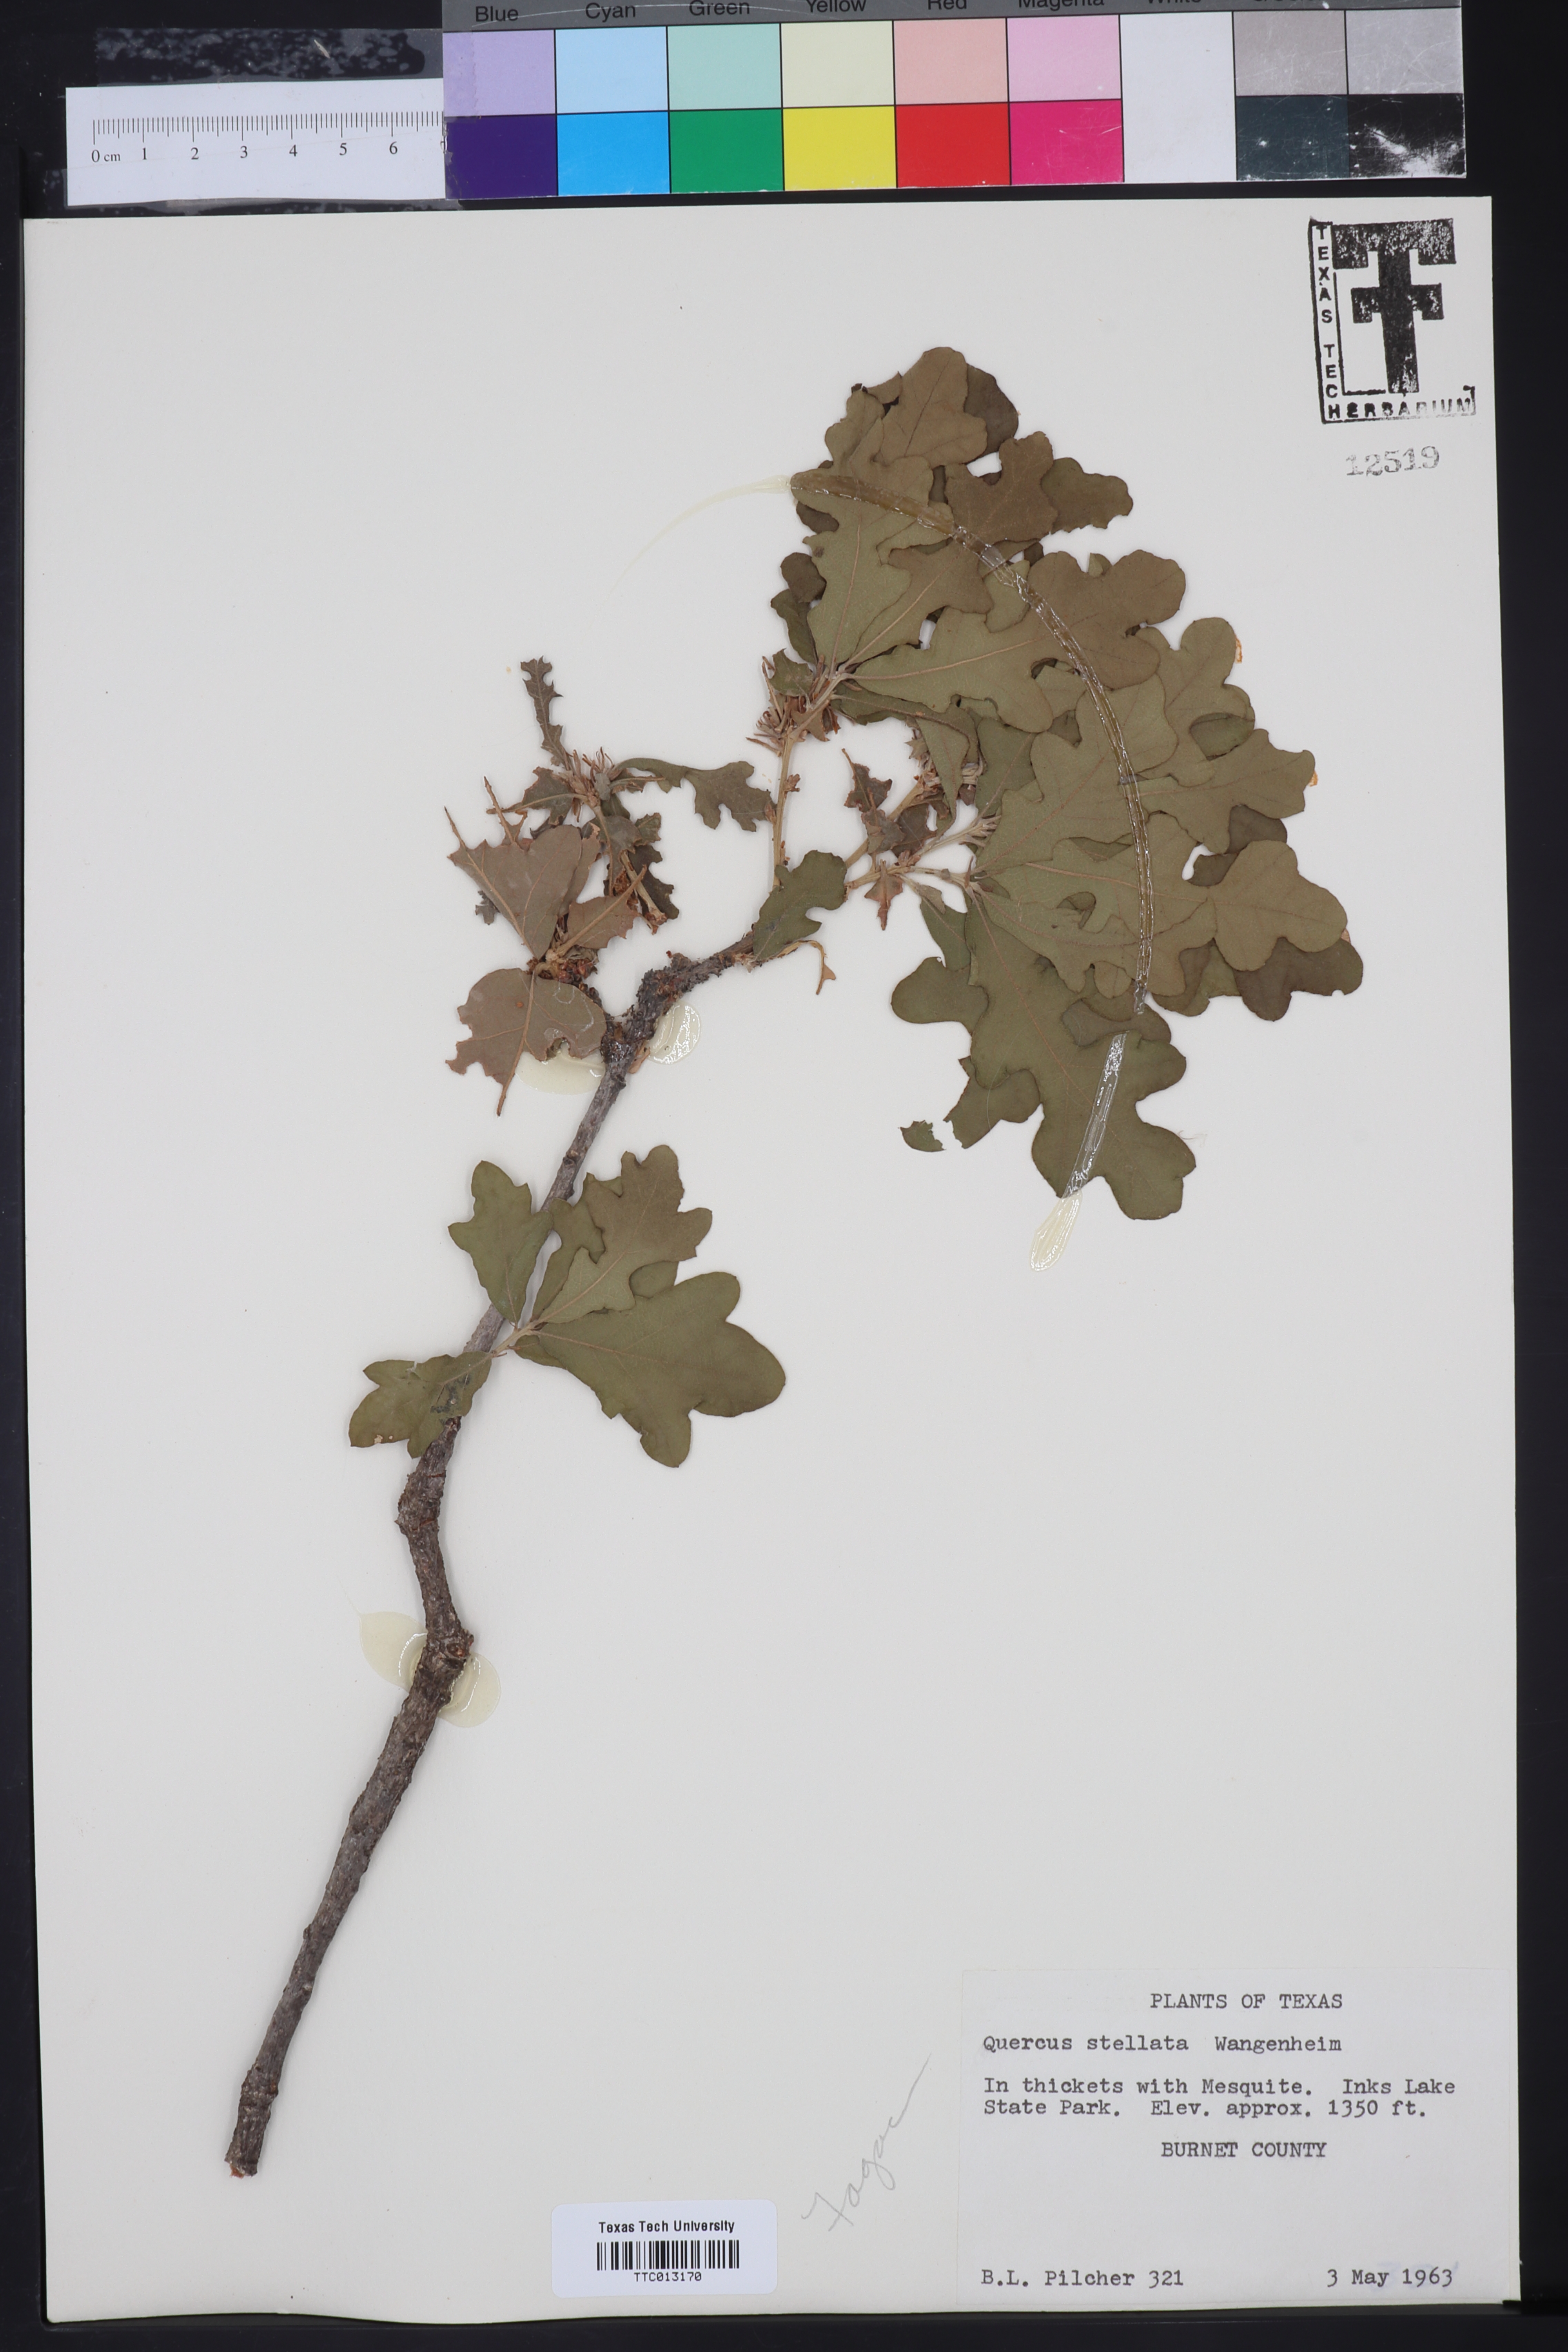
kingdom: Plantae
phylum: Tracheophyta
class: Magnoliopsida
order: Fagales
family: Fagaceae
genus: Quercus
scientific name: Quercus stellata
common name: Post oak
